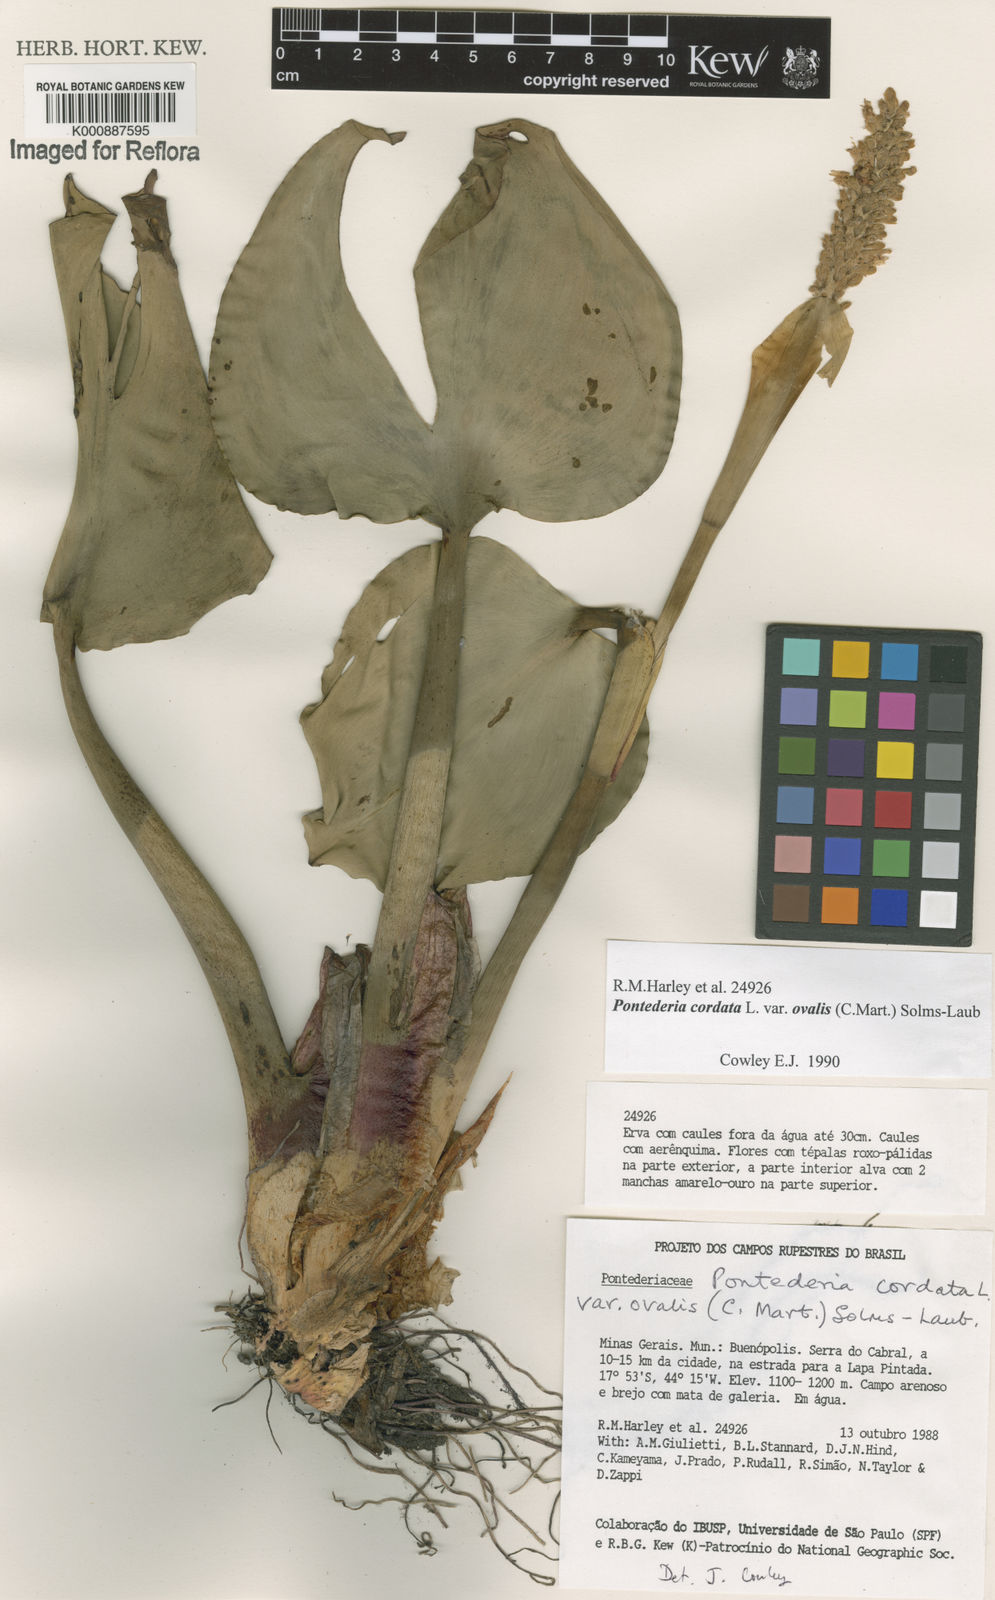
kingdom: Plantae
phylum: Tracheophyta
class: Liliopsida
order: Commelinales
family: Pontederiaceae
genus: Pontederia
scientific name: Pontederia cordata
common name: Pickerelweed
